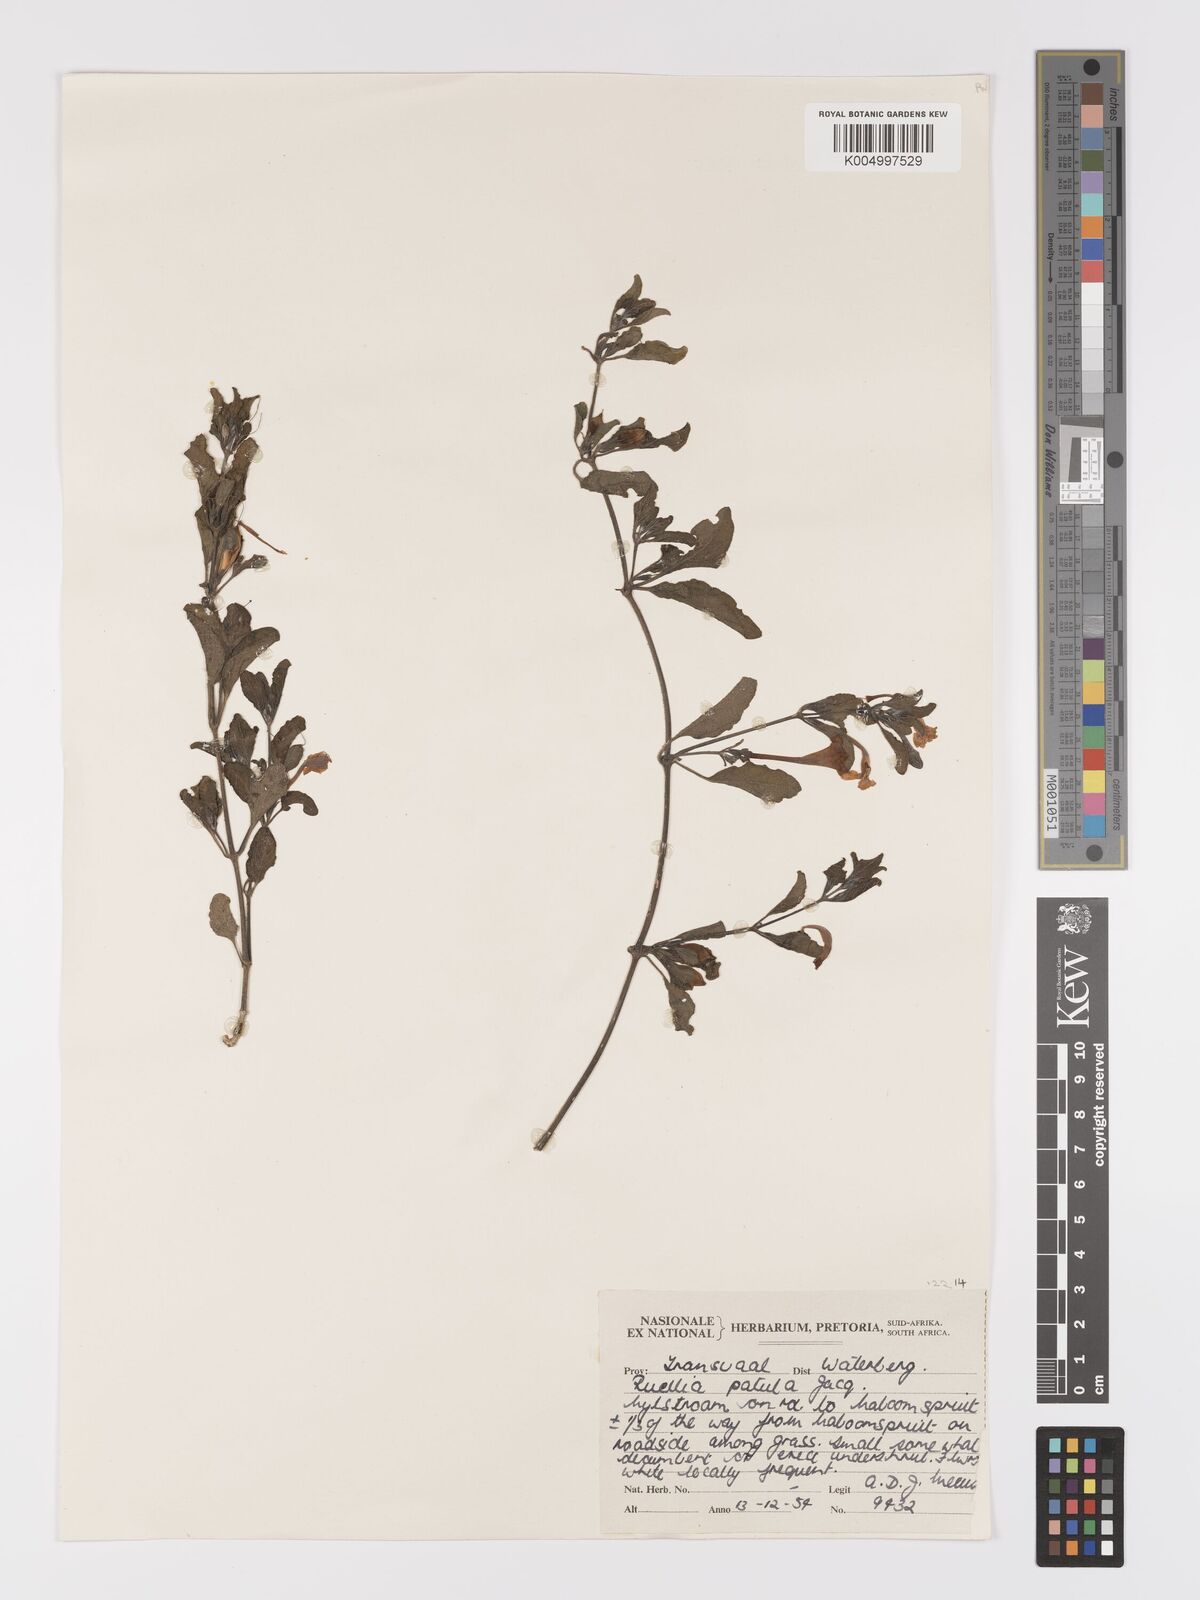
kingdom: Plantae
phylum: Tracheophyta
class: Magnoliopsida
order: Lamiales
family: Acanthaceae
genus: Ruellia
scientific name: Ruellia patula
